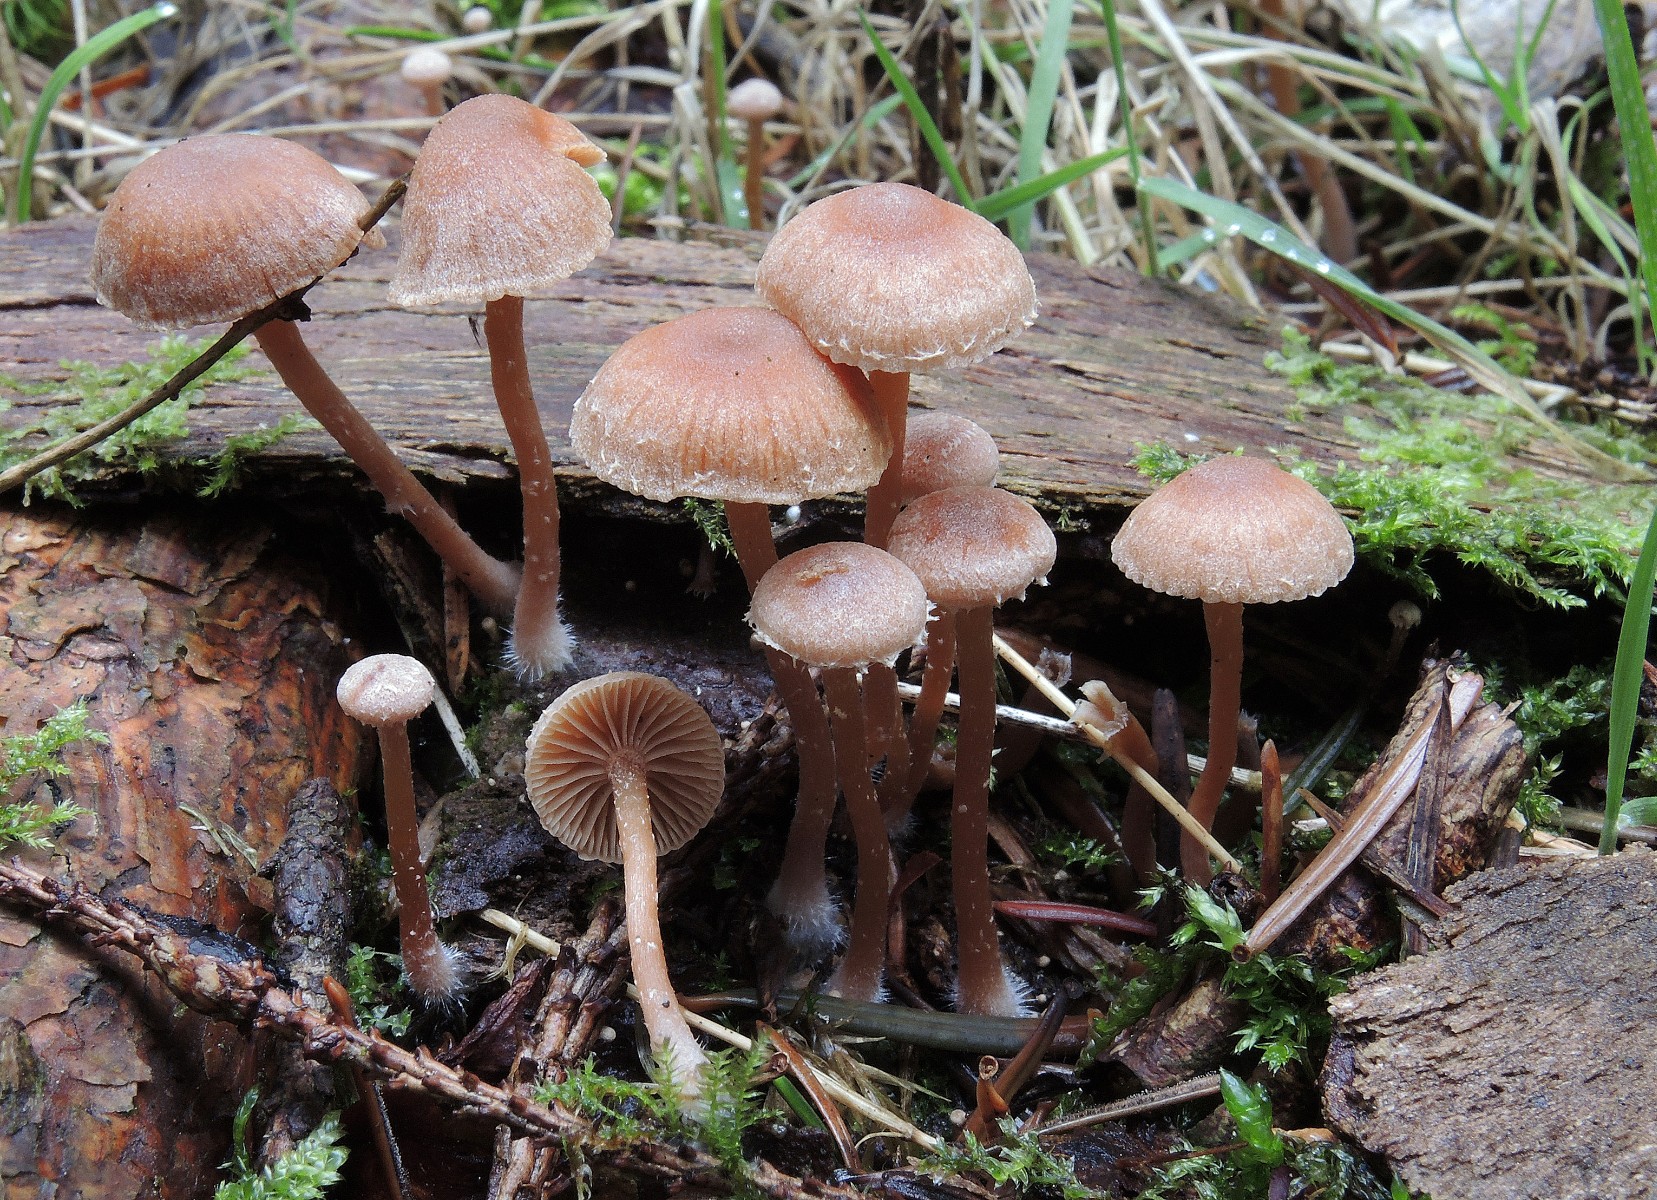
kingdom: Fungi
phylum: Basidiomycota
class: Agaricomycetes
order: Agaricales
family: Tubariaceae
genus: Tubaria
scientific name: Tubaria conspersa
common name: bleg fnughat
